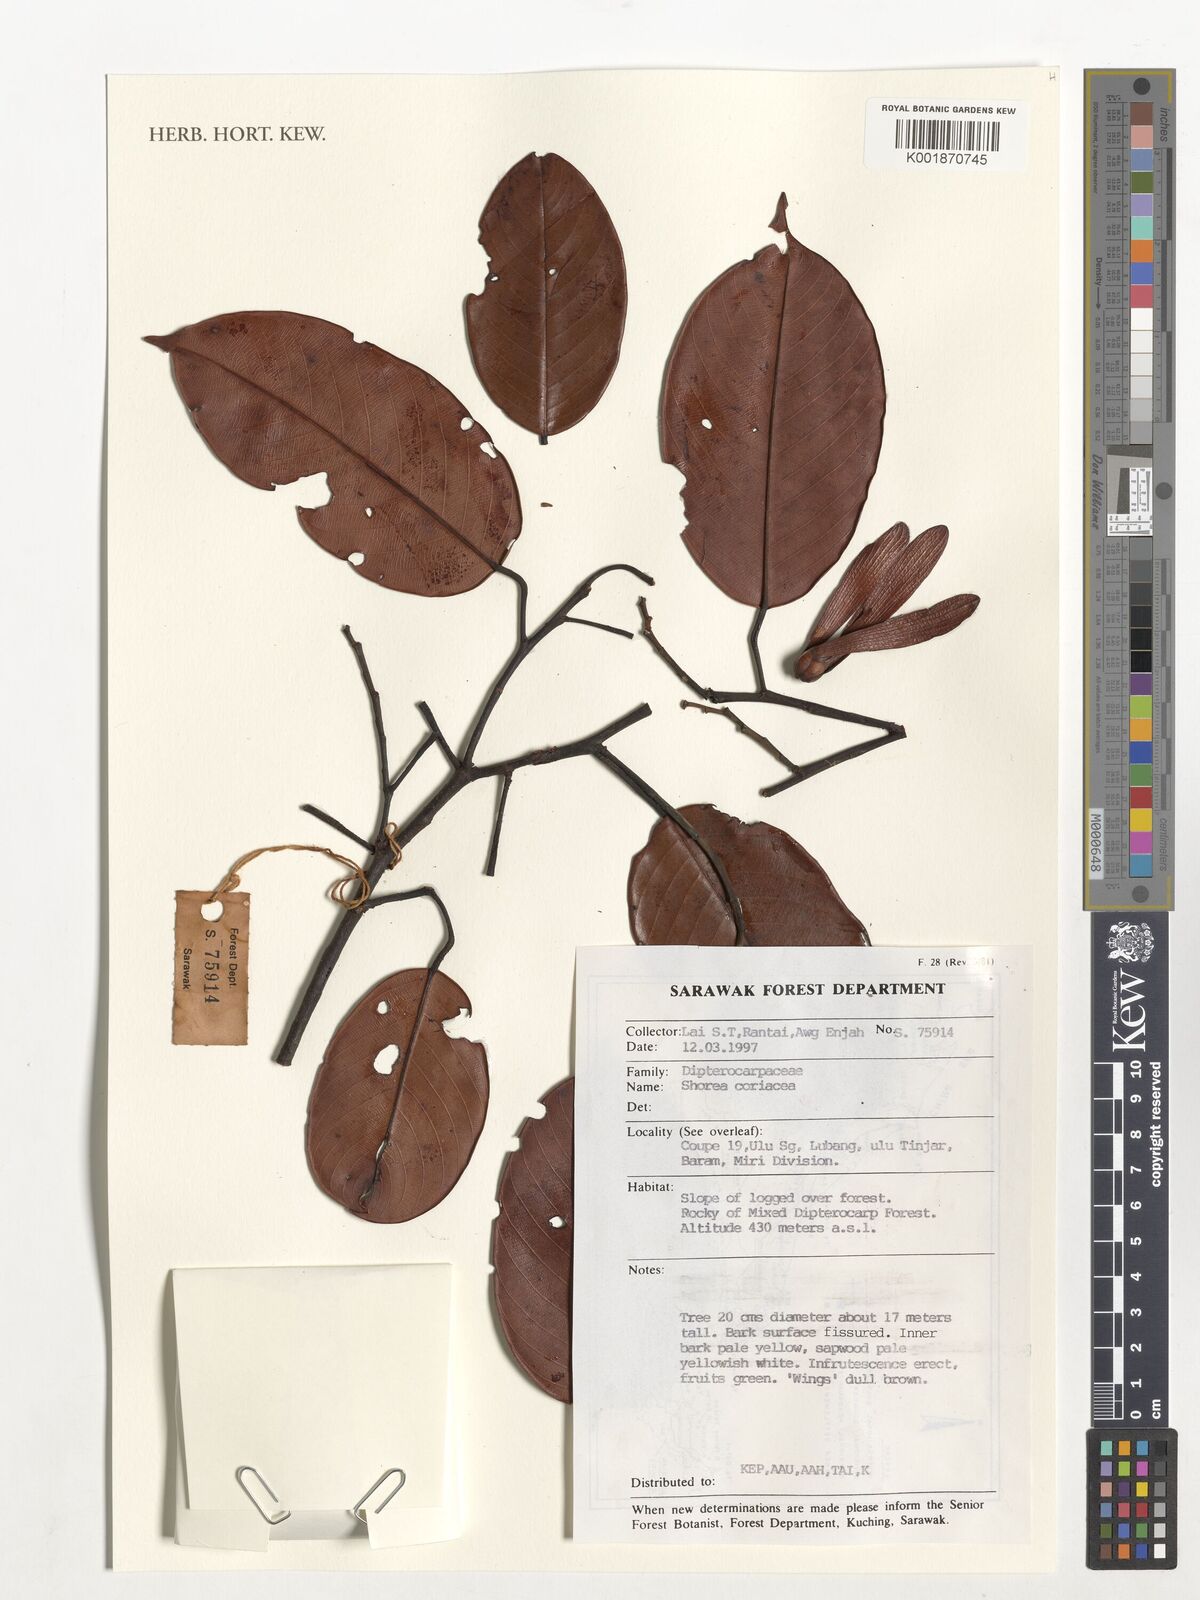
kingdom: Plantae
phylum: Tracheophyta
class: Magnoliopsida
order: Malvales
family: Dipterocarpaceae
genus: Shorea
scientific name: Shorea coriacea
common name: Seraya tangkai panjang
